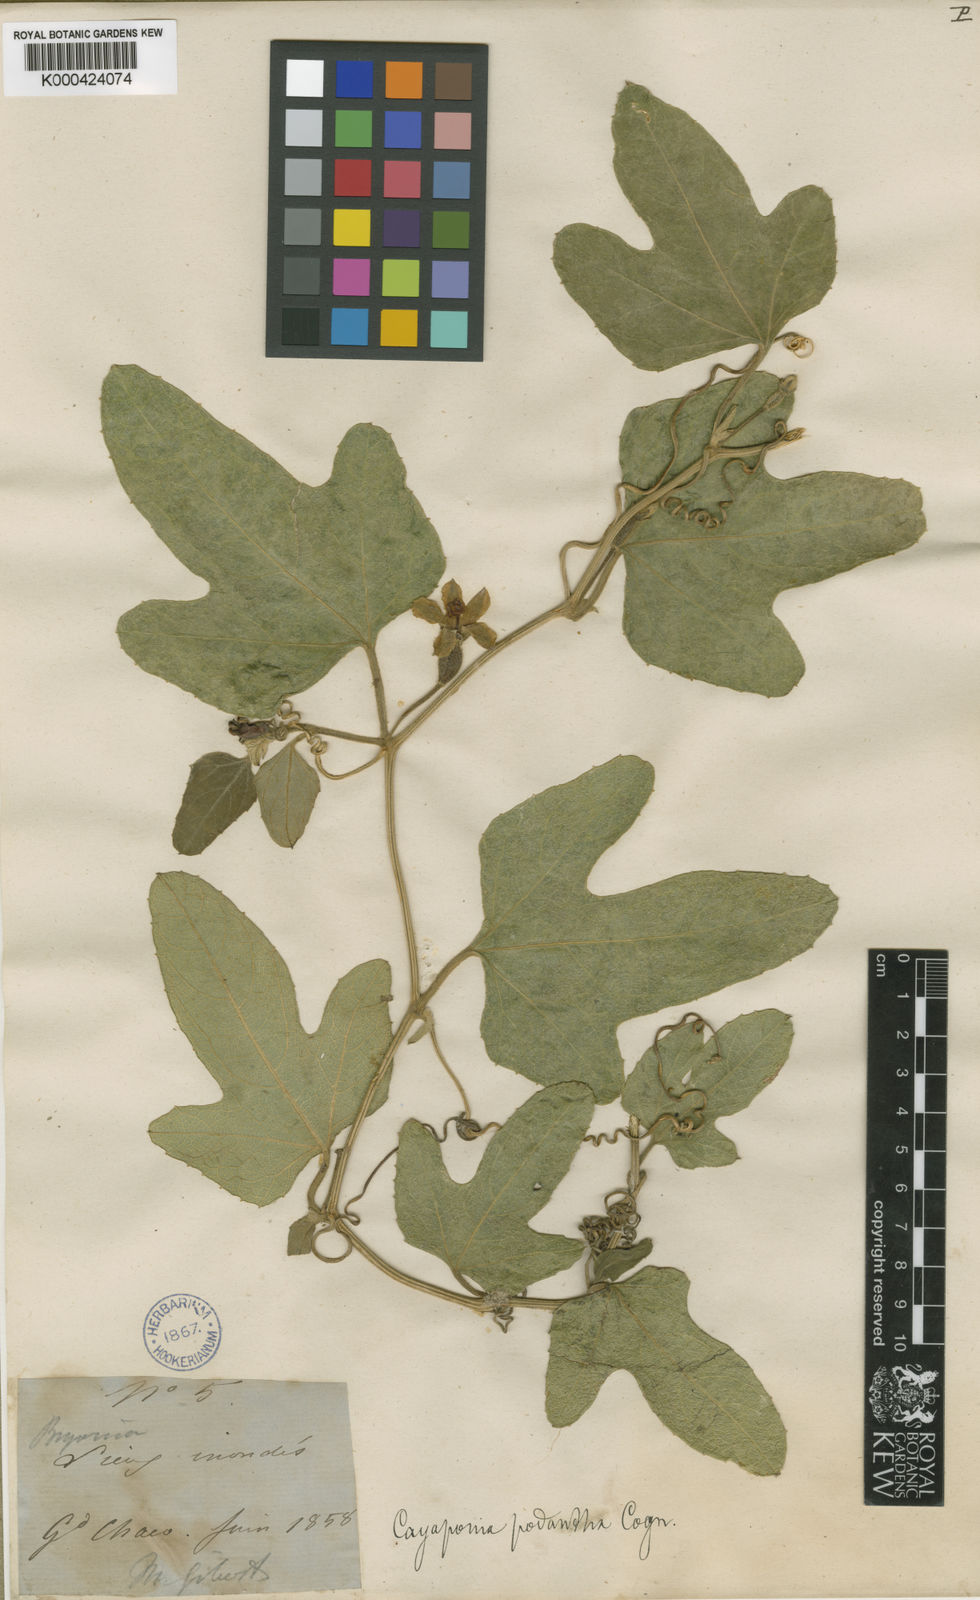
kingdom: Plantae
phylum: Tracheophyta
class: Magnoliopsida
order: Cucurbitales
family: Cucurbitaceae
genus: Cayaponia
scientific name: Cayaponia podantha
